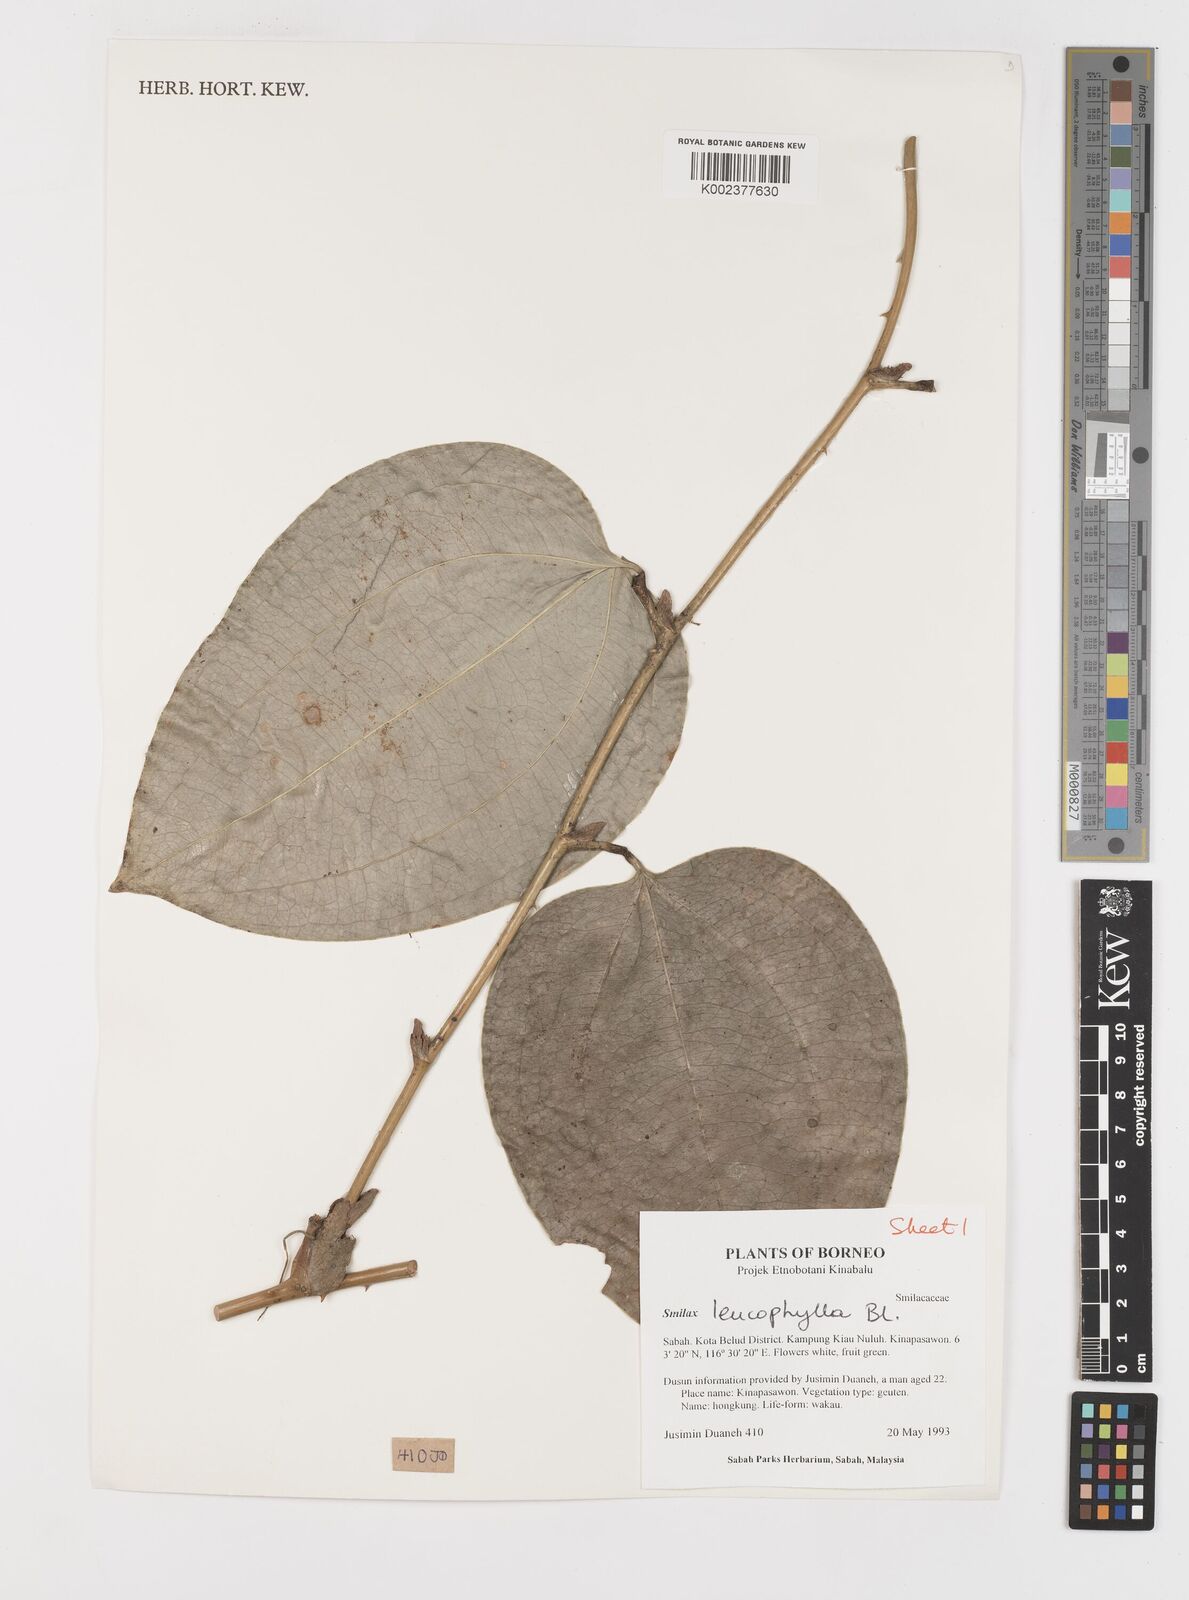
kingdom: Plantae
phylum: Tracheophyta
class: Liliopsida
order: Liliales
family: Smilacaceae
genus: Smilax
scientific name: Smilax leucophylla
